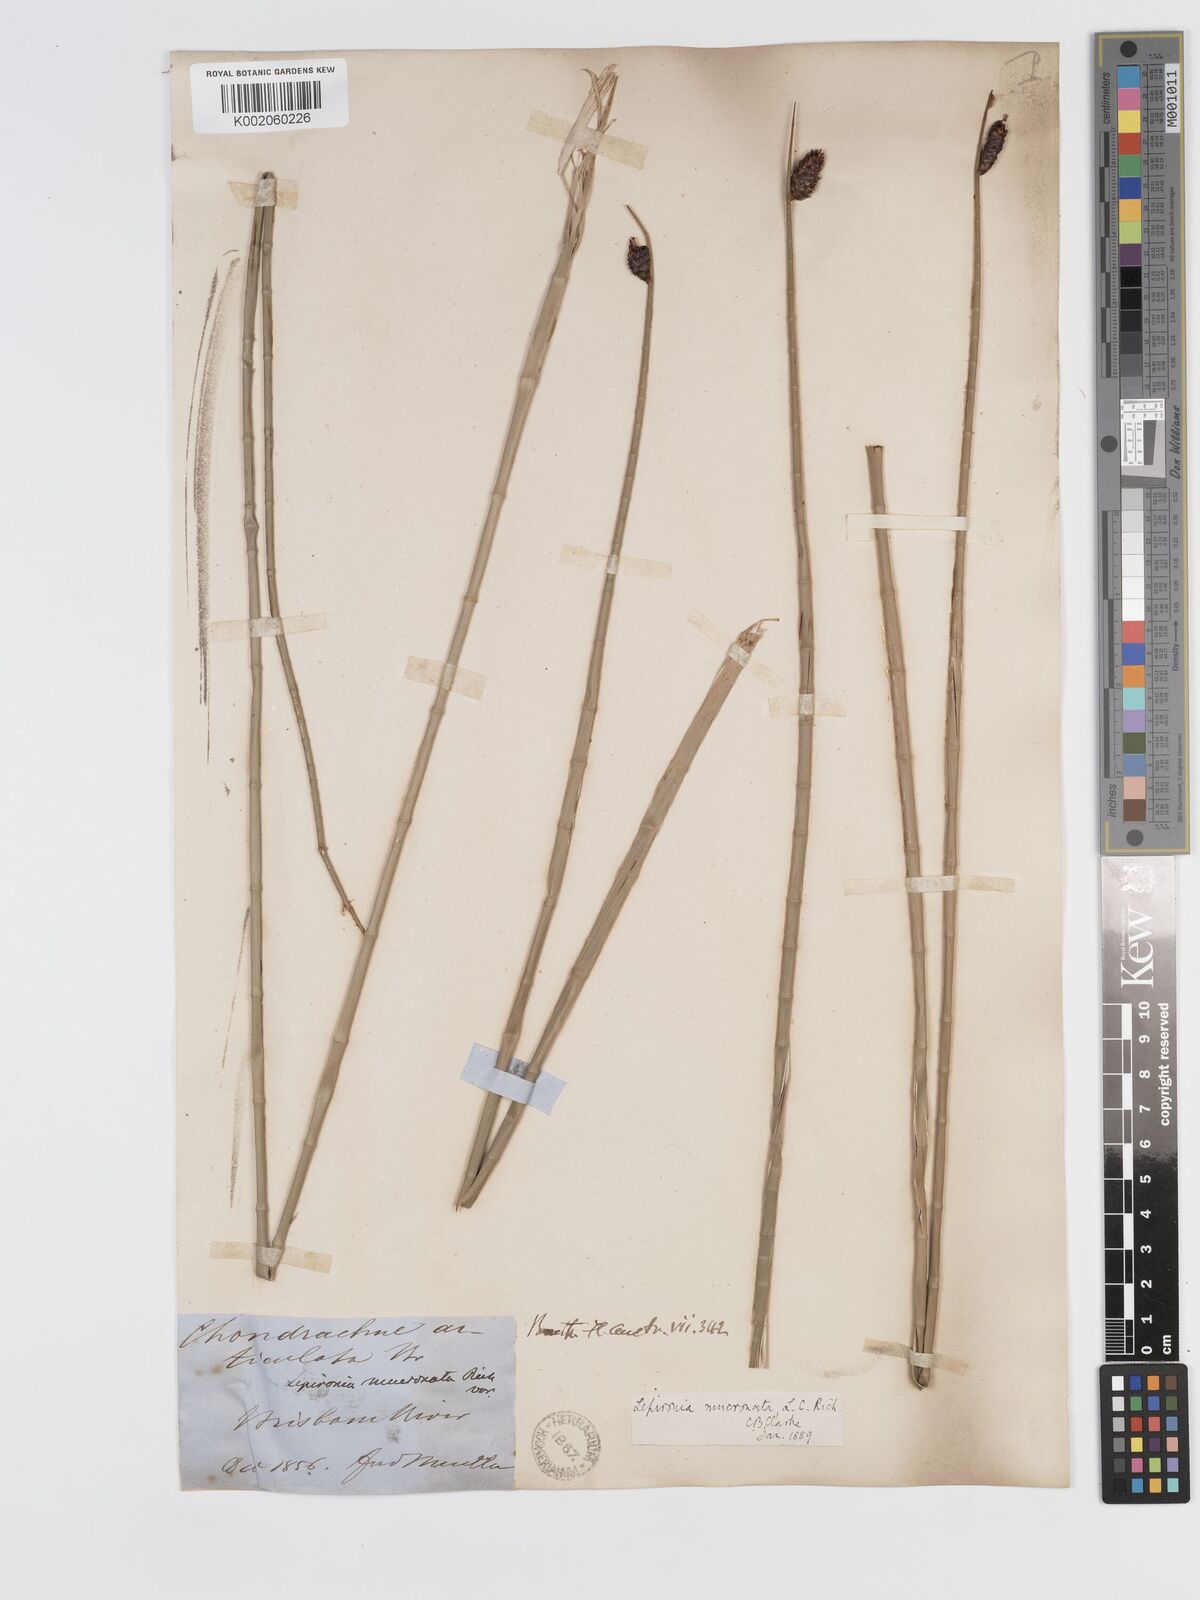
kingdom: Plantae
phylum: Tracheophyta
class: Liliopsida
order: Poales
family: Cyperaceae
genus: Lepironia
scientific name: Lepironia articulata
